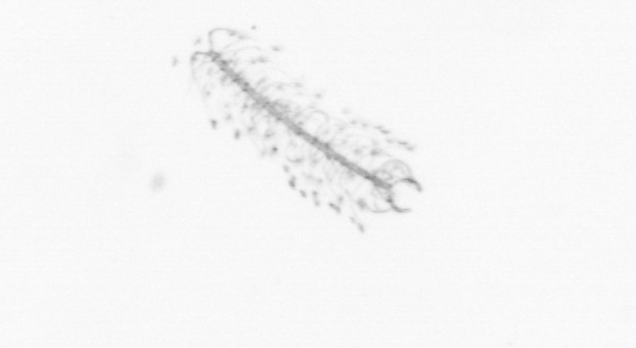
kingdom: Chromista
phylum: Ochrophyta
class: Bacillariophyceae
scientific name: Bacillariophyceae
